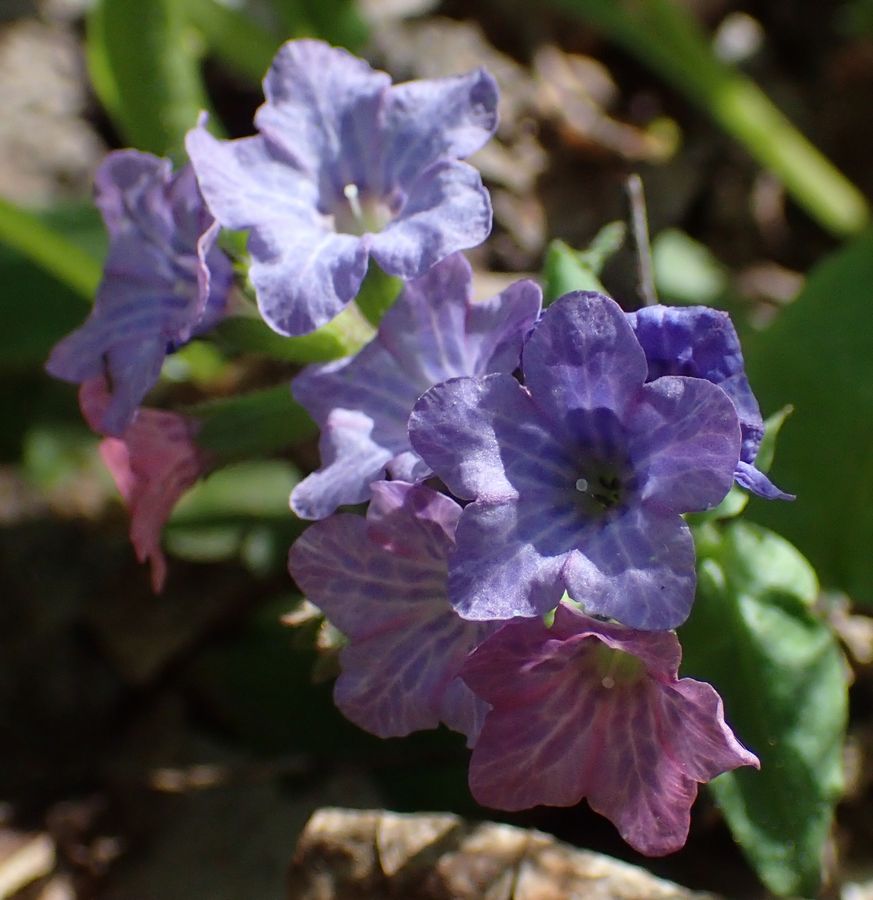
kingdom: Plantae
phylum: Tracheophyta
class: Magnoliopsida
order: Boraginales
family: Boraginaceae
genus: Pulmonaria
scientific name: Pulmonaria obscura
